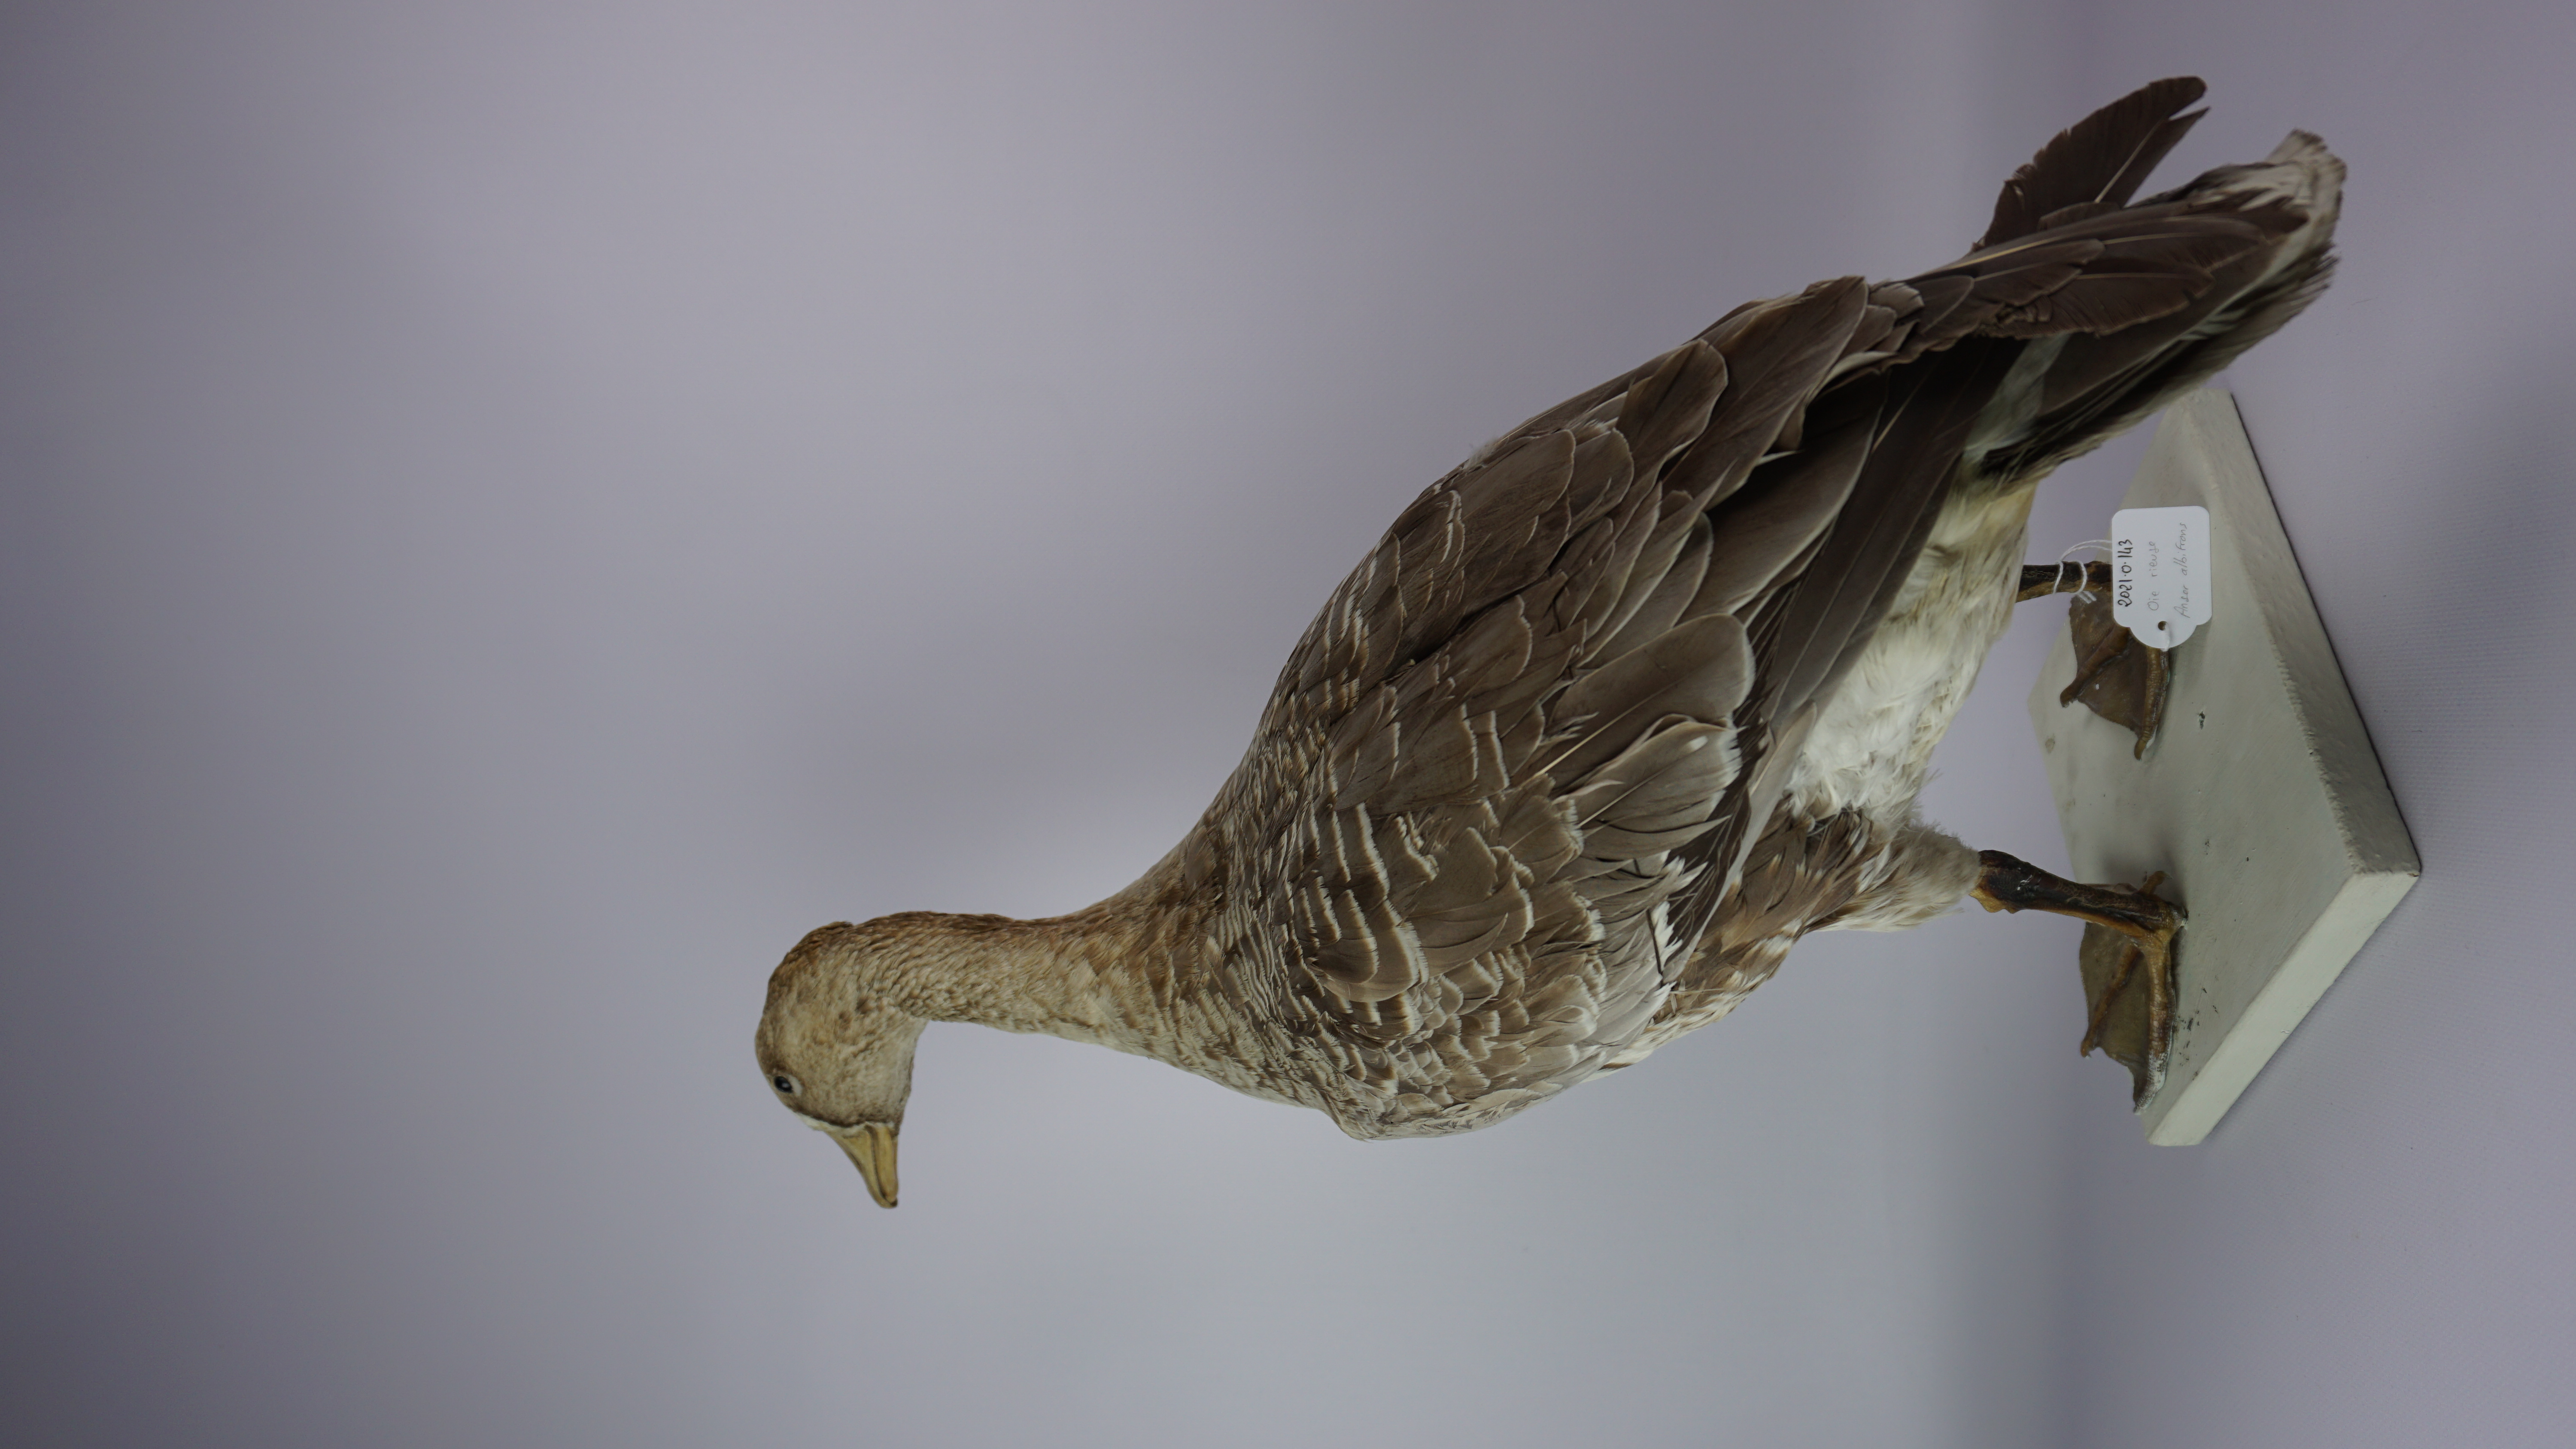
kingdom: Animalia
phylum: Chordata
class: Aves
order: Anseriformes
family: Anatidae
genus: Anser
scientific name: Anser albifrons
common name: Greater white-fronted goose
